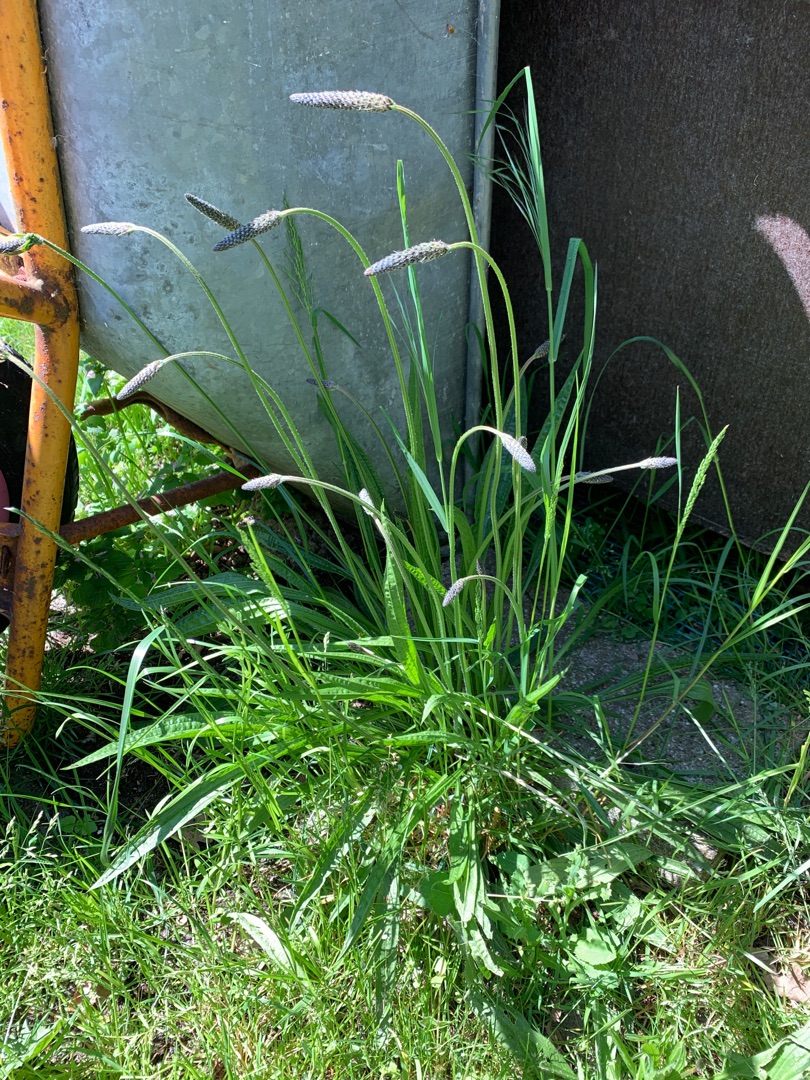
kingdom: Plantae
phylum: Tracheophyta
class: Magnoliopsida
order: Lamiales
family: Plantaginaceae
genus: Plantago
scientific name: Plantago lanceolata
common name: Lancet-vejbred
